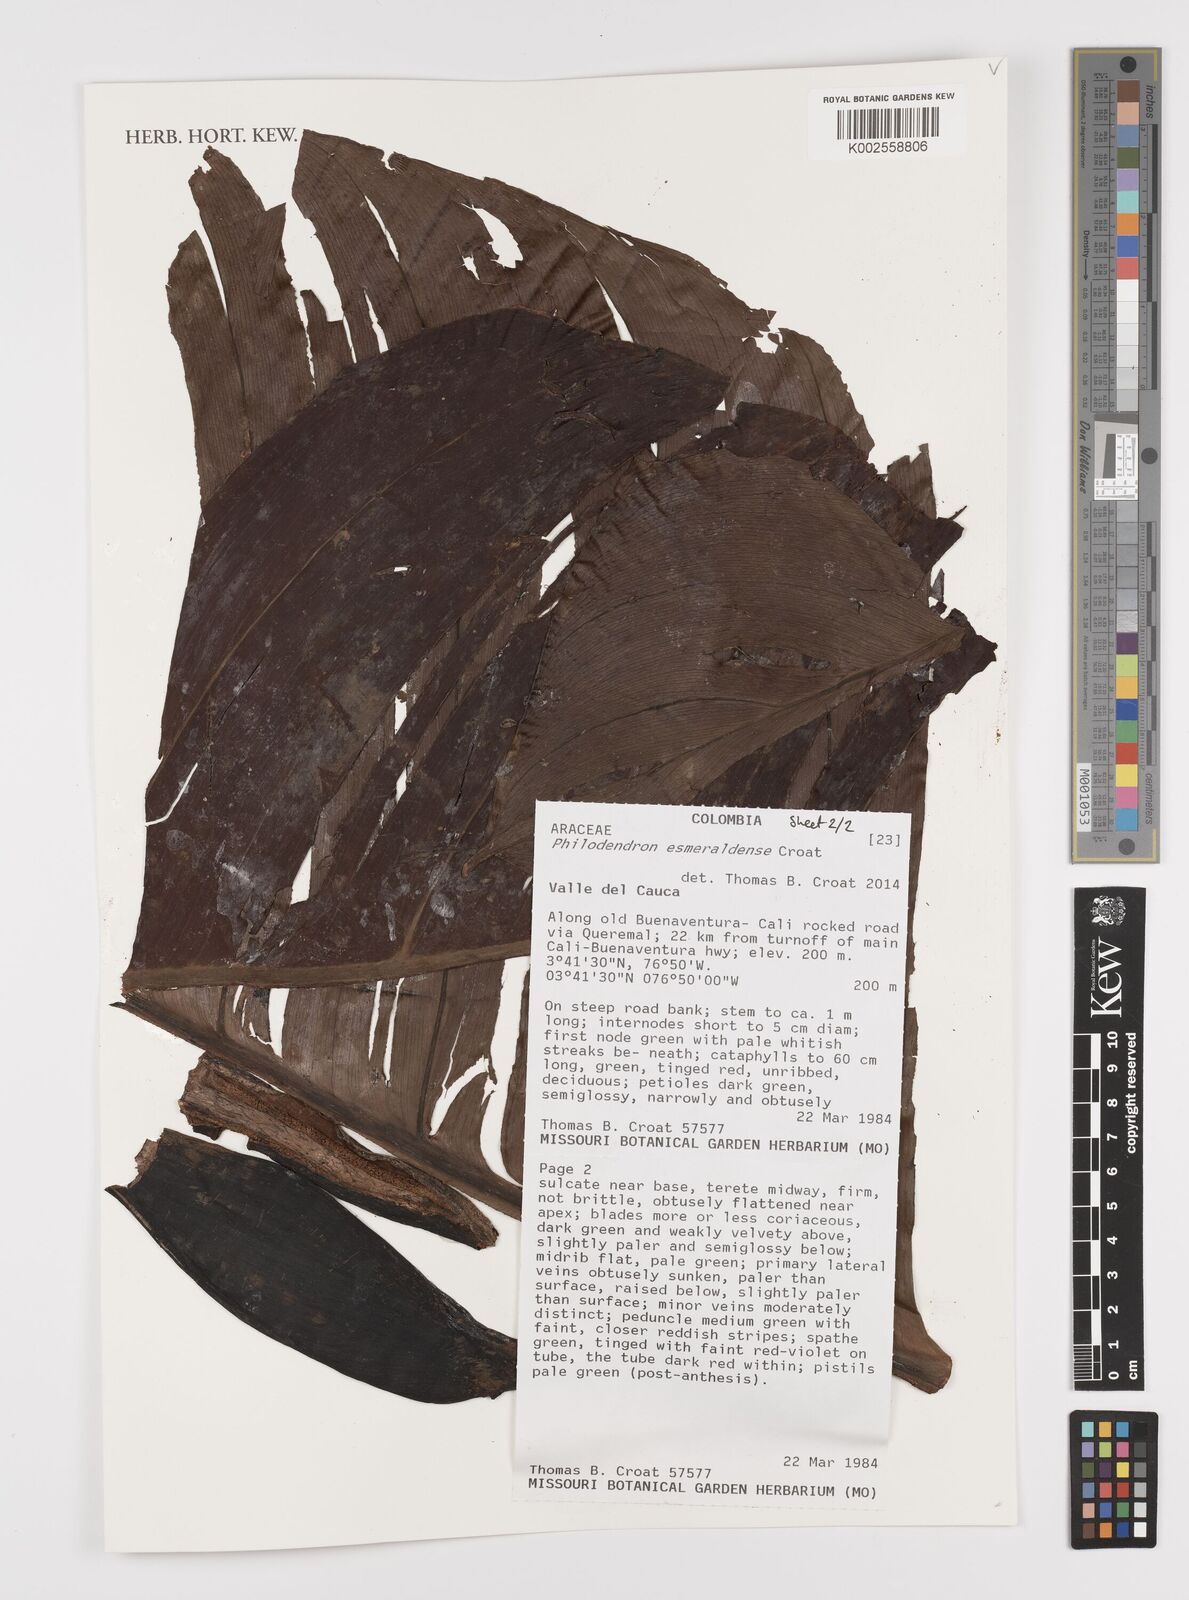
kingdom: Plantae
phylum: Tracheophyta
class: Liliopsida
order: Alismatales
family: Araceae
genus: Philodendron
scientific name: Philodendron esmeraldense
